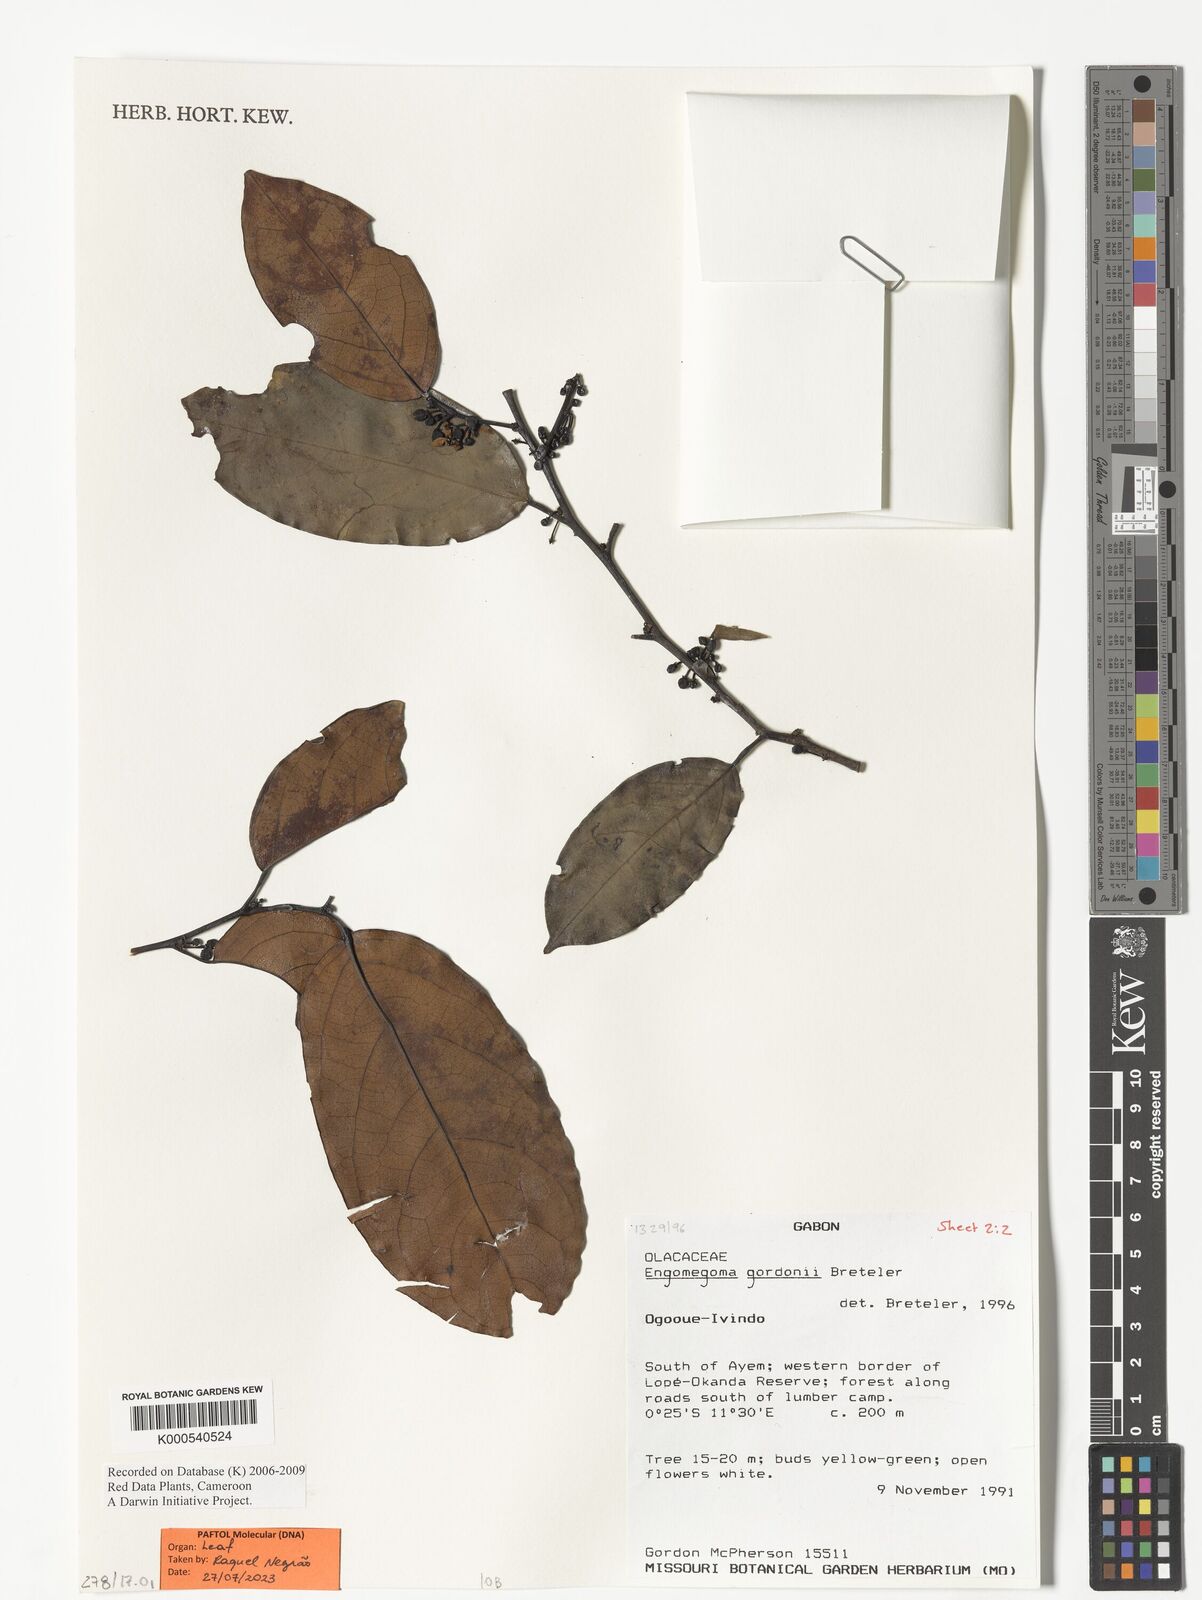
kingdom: Plantae
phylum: Tracheophyta
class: Magnoliopsida
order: Santalales
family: Strombosiaceae
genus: Engomegoma
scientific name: Engomegoma gordonii
